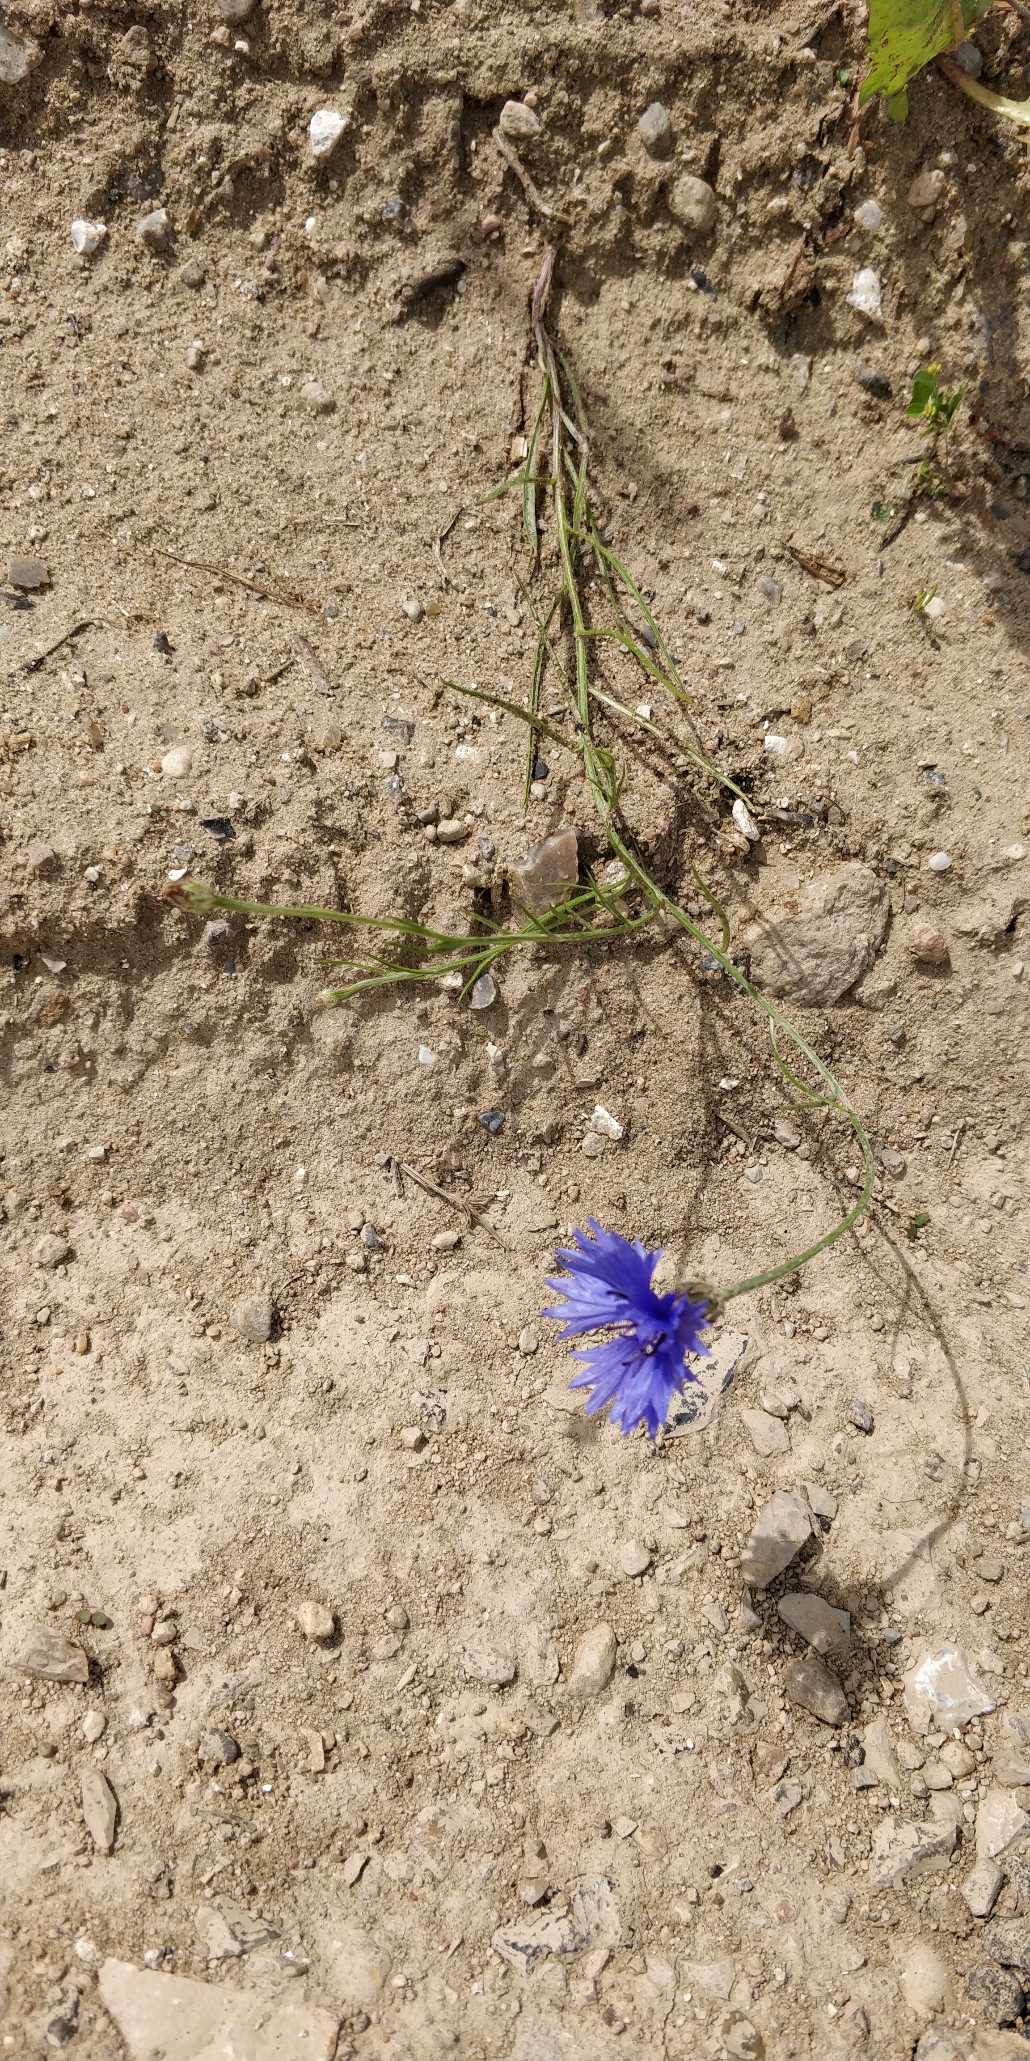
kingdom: Plantae
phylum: Tracheophyta
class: Magnoliopsida
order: Asterales
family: Asteraceae
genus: Centaurea
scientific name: Centaurea cyanus
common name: Kornblomst
